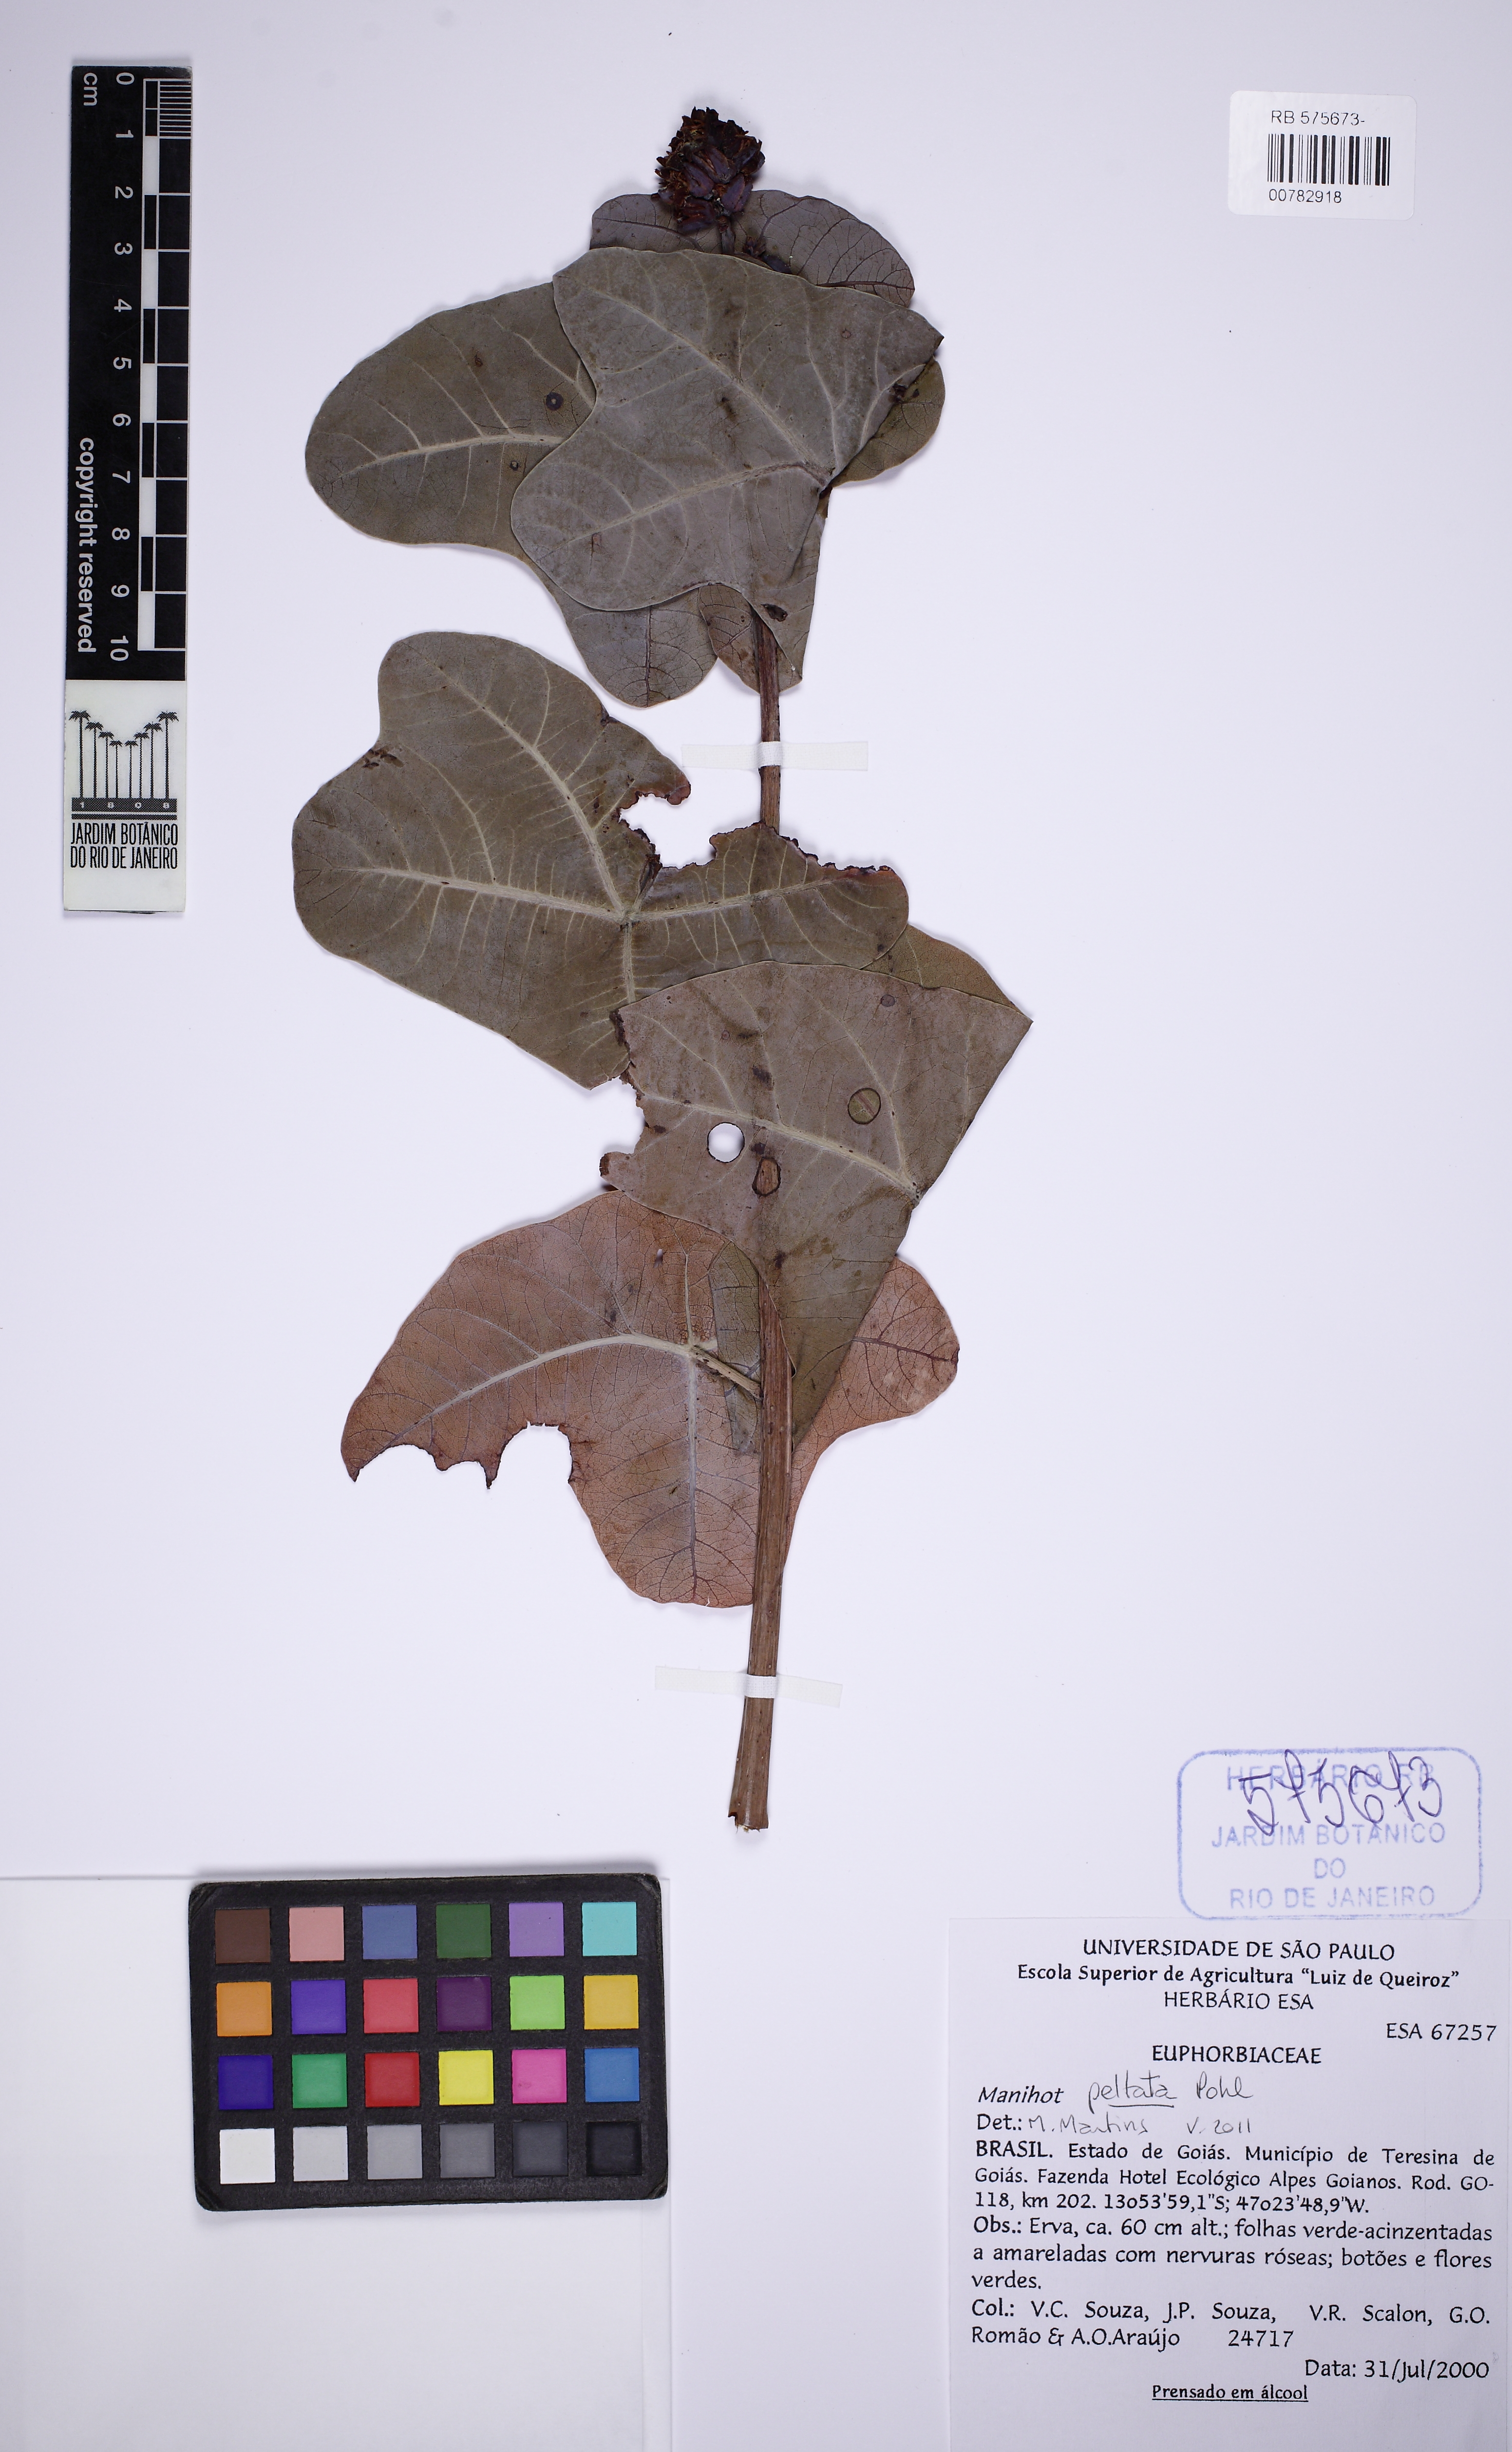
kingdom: Plantae
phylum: Tracheophyta
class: Magnoliopsida
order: Malpighiales
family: Euphorbiaceae
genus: Manihot
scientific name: Manihot peltata
